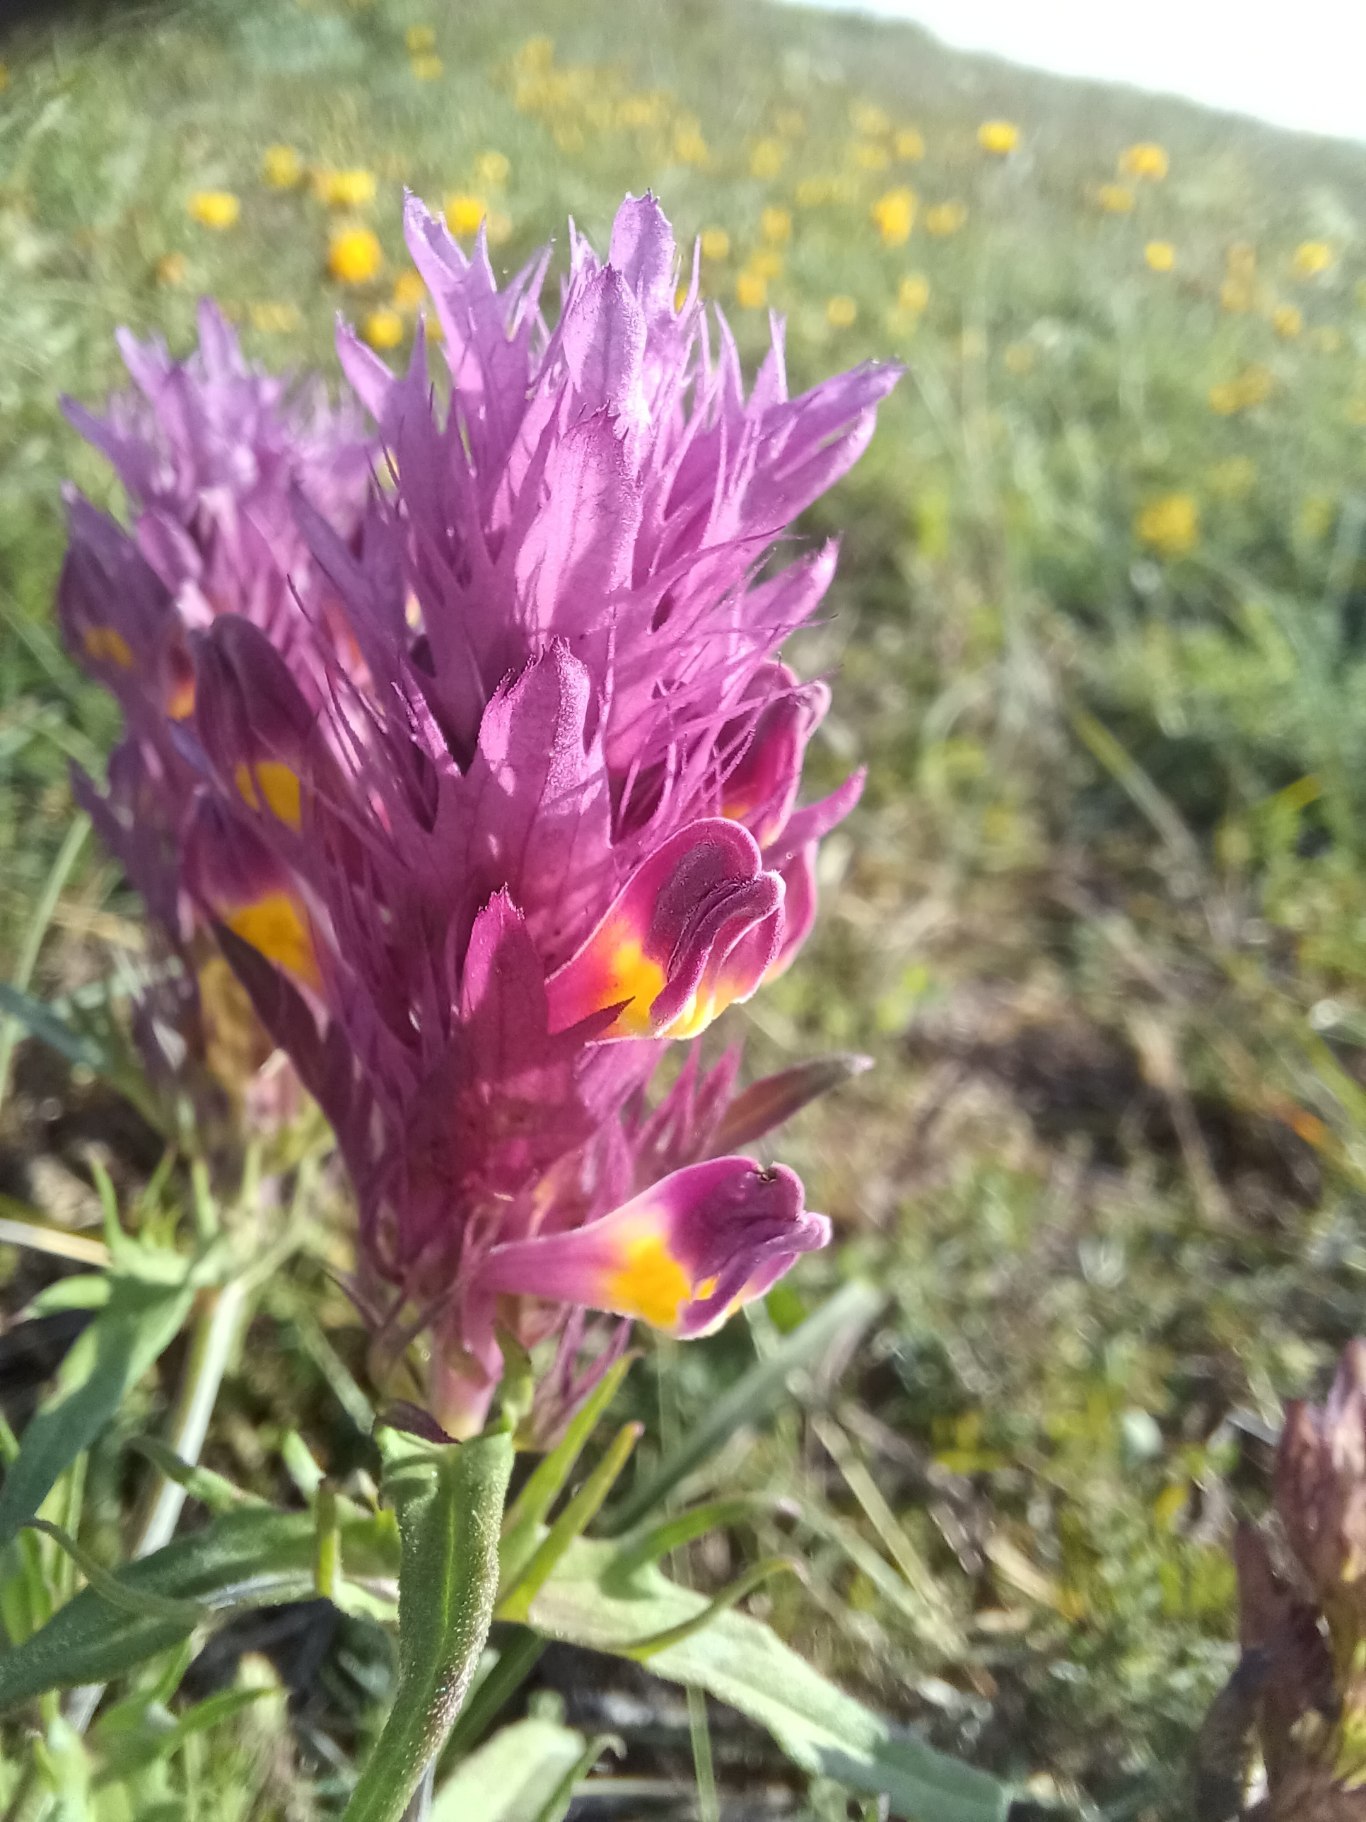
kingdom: Plantae
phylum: Tracheophyta
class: Magnoliopsida
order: Lamiales
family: Orobanchaceae
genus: Melampyrum
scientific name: Melampyrum arvense
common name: Ager-kohvede
